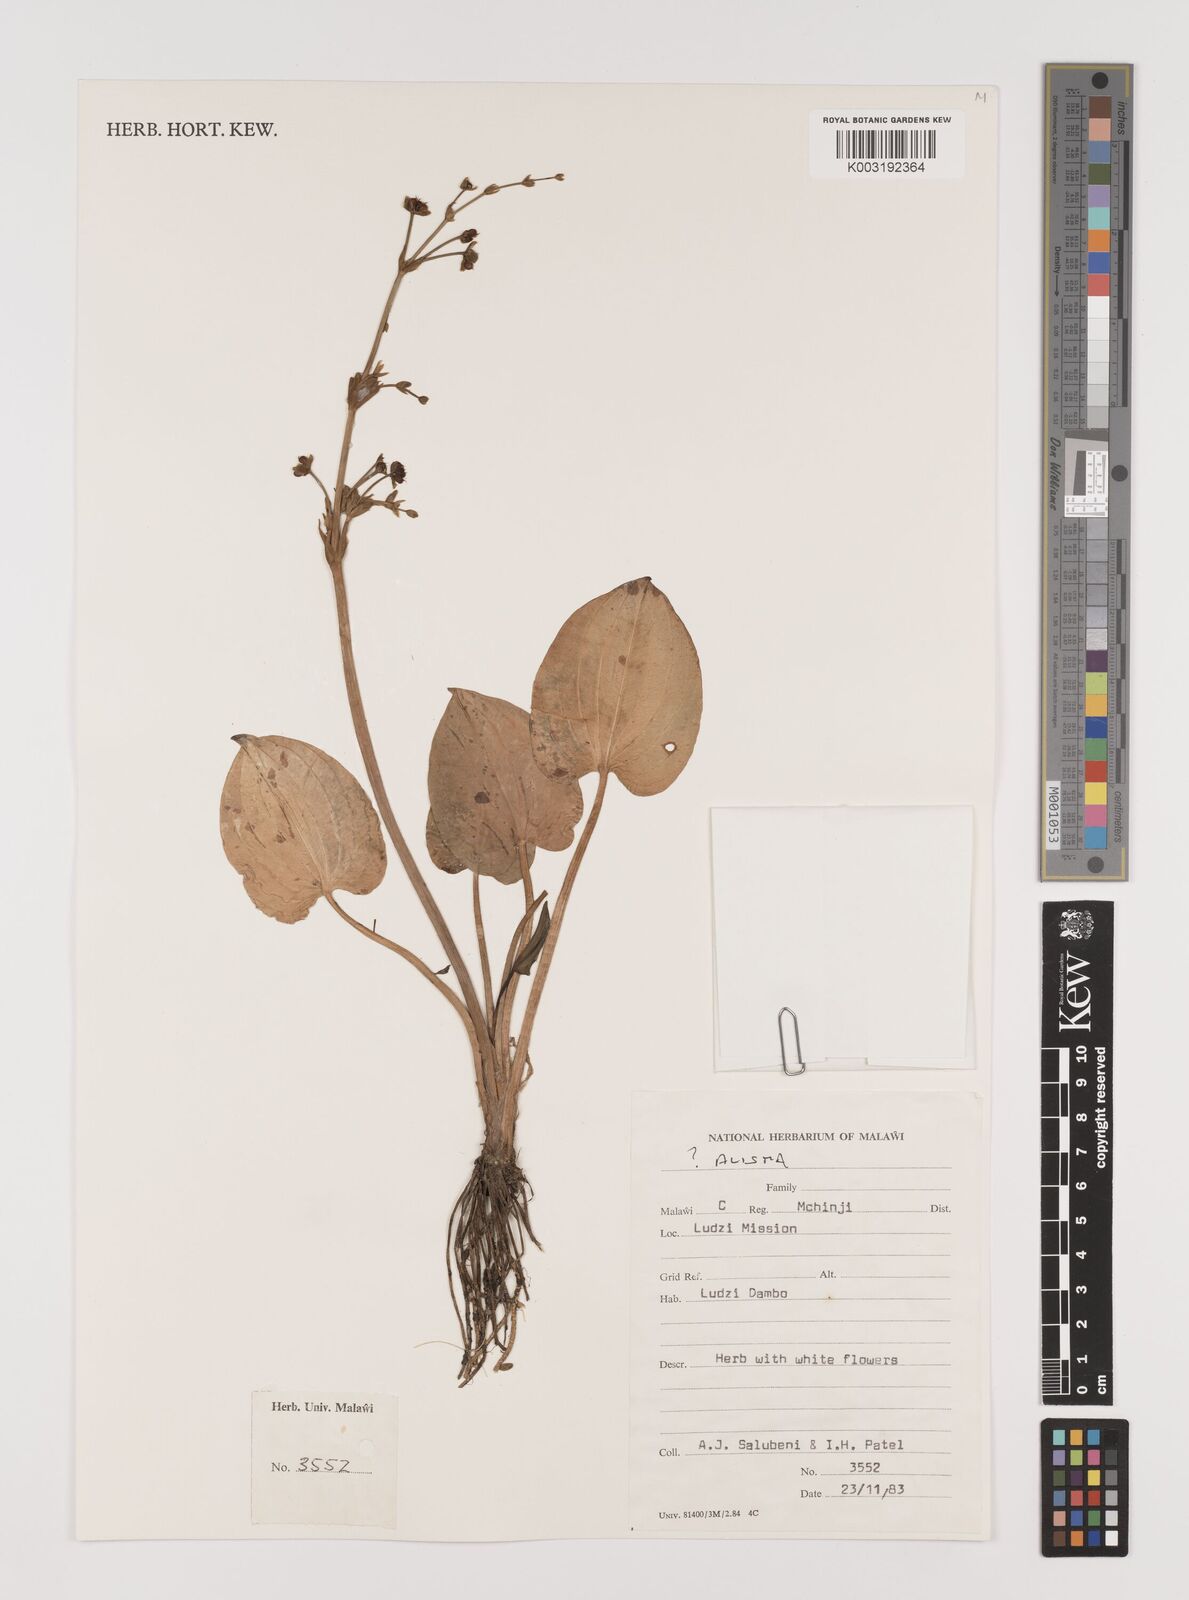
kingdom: Plantae
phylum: Tracheophyta
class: Liliopsida
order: Alismatales
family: Alismataceae
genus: Alisma
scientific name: Alisma
